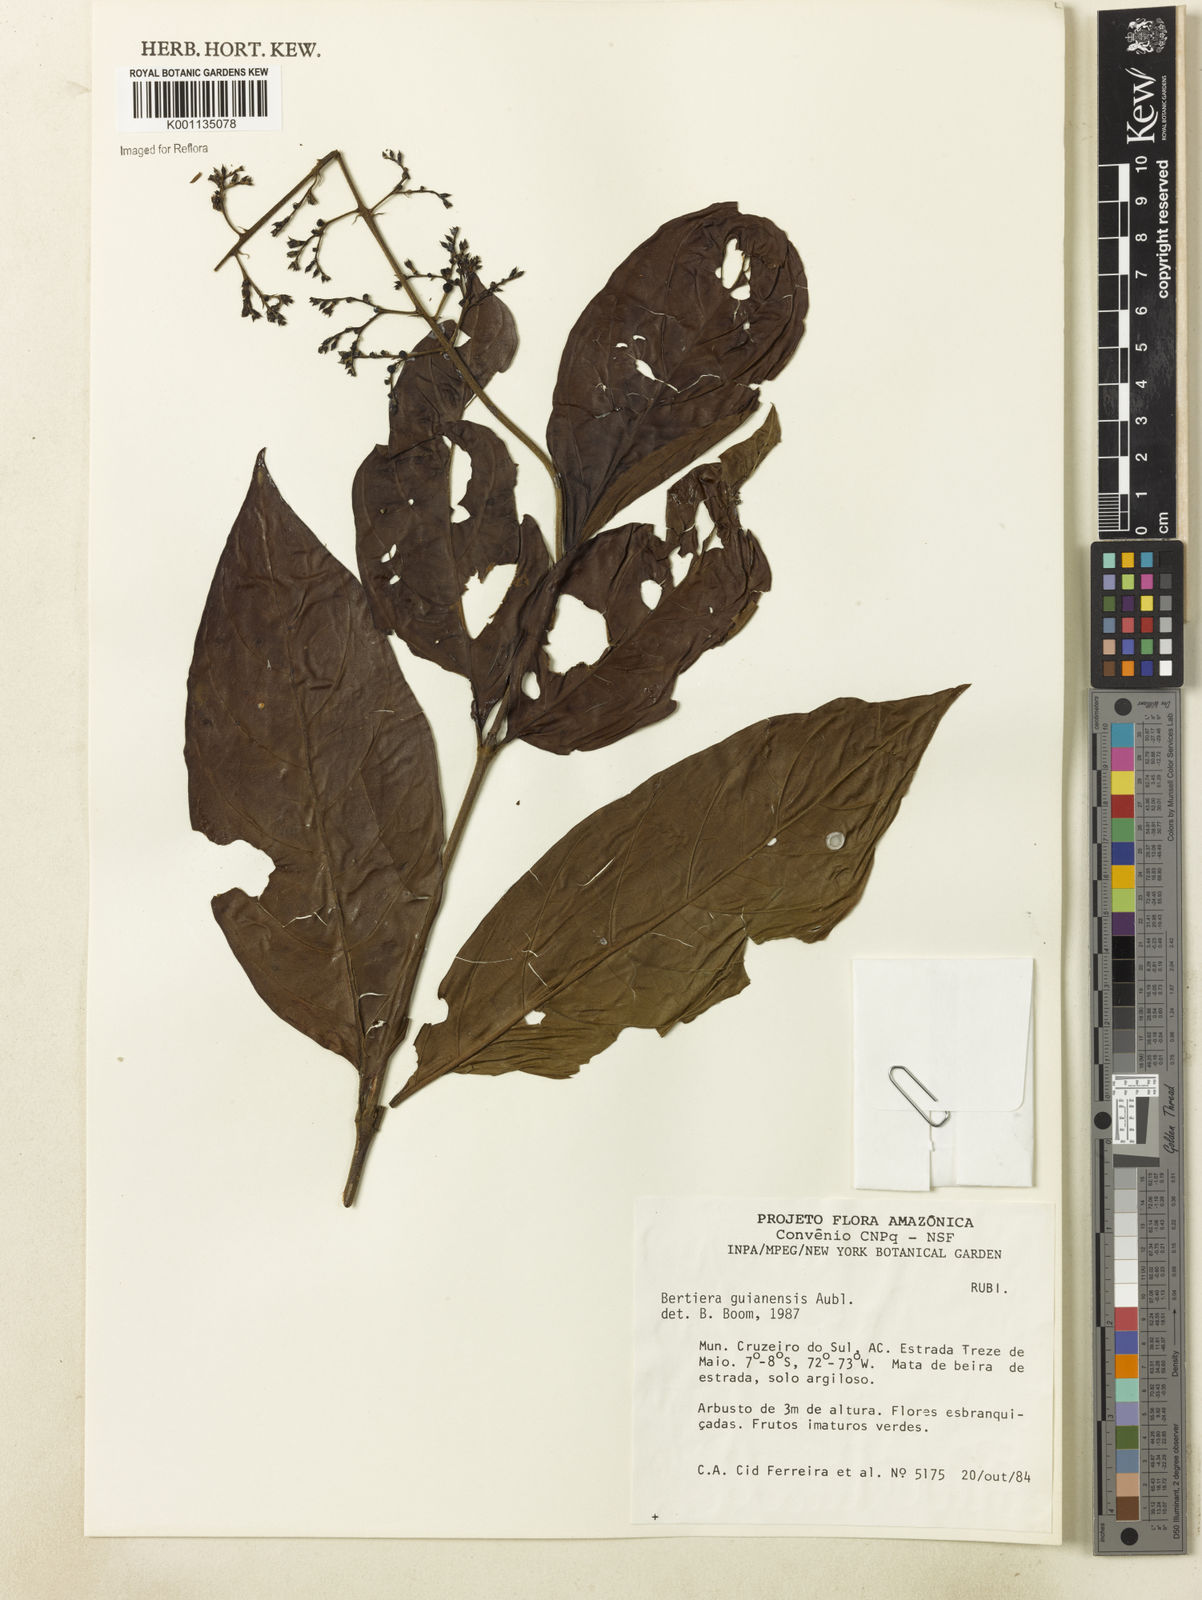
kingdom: Plantae
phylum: Tracheophyta
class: Magnoliopsida
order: Gentianales
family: Rubiaceae
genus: Bertiera
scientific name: Bertiera guianensis
